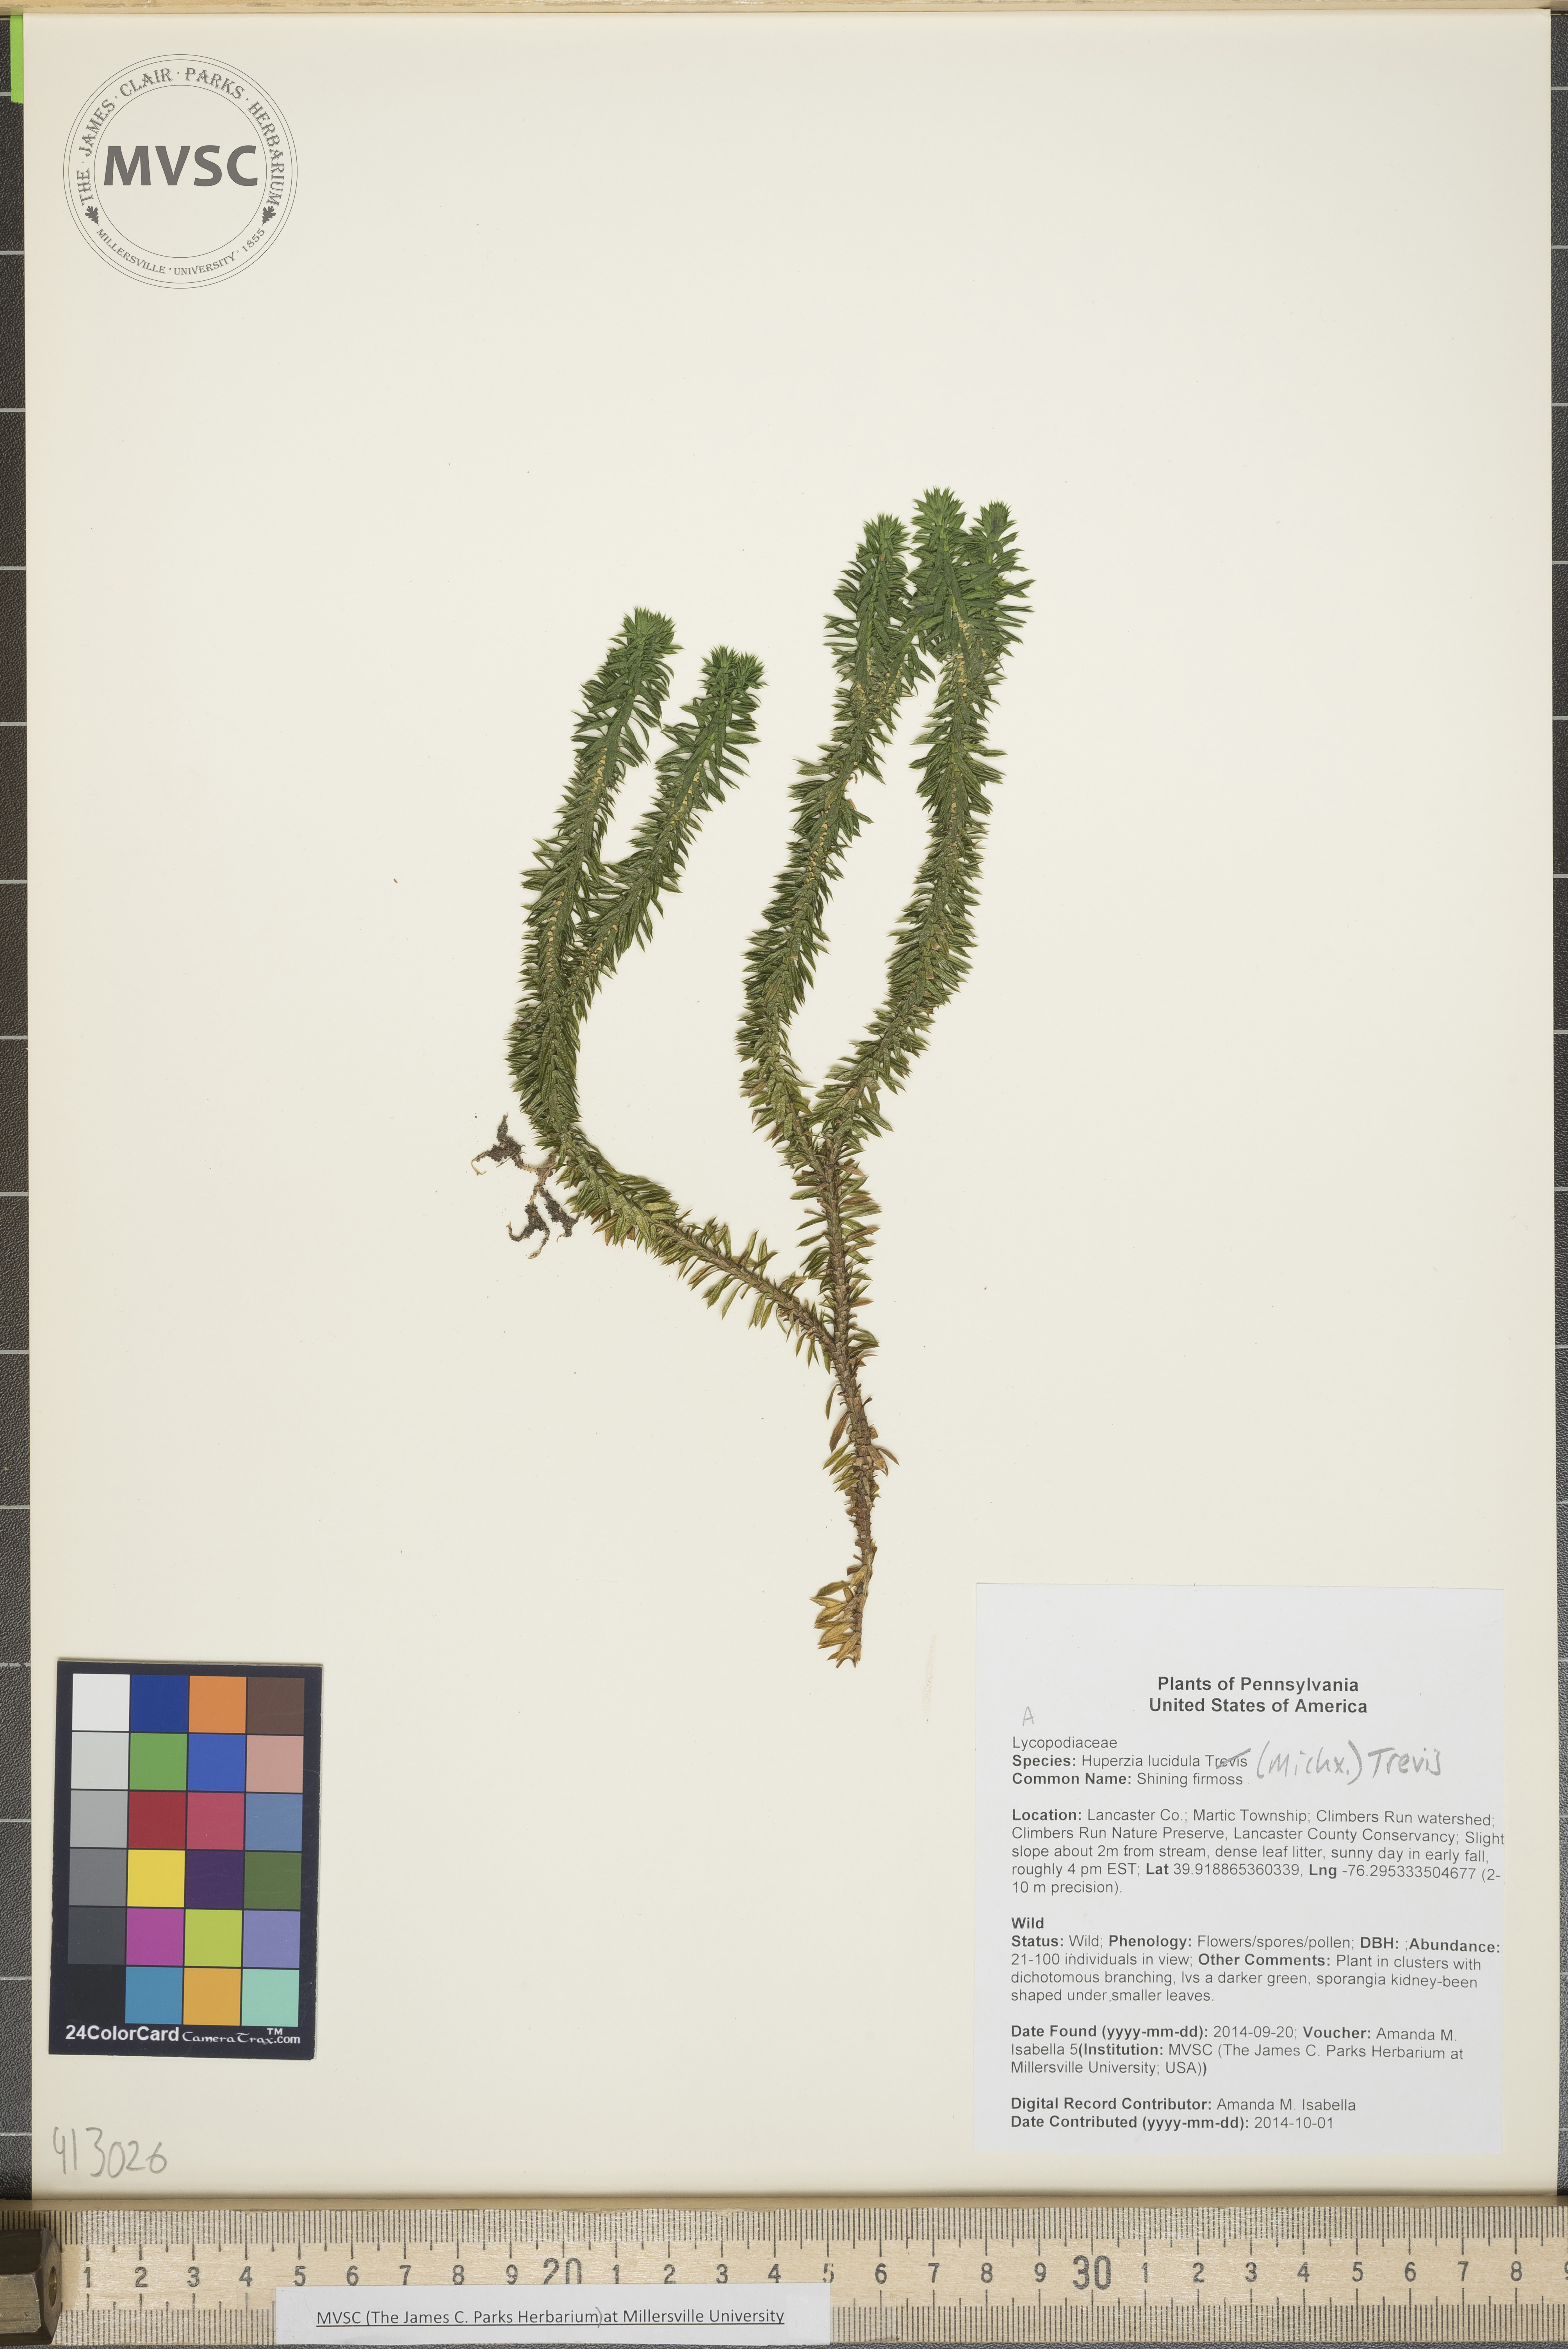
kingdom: Plantae
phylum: Tracheophyta
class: Lycopodiopsida
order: Lycopodiales
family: Lycopodiaceae
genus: Huperzia
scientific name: Huperzia lucidula
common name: shining firmoss
